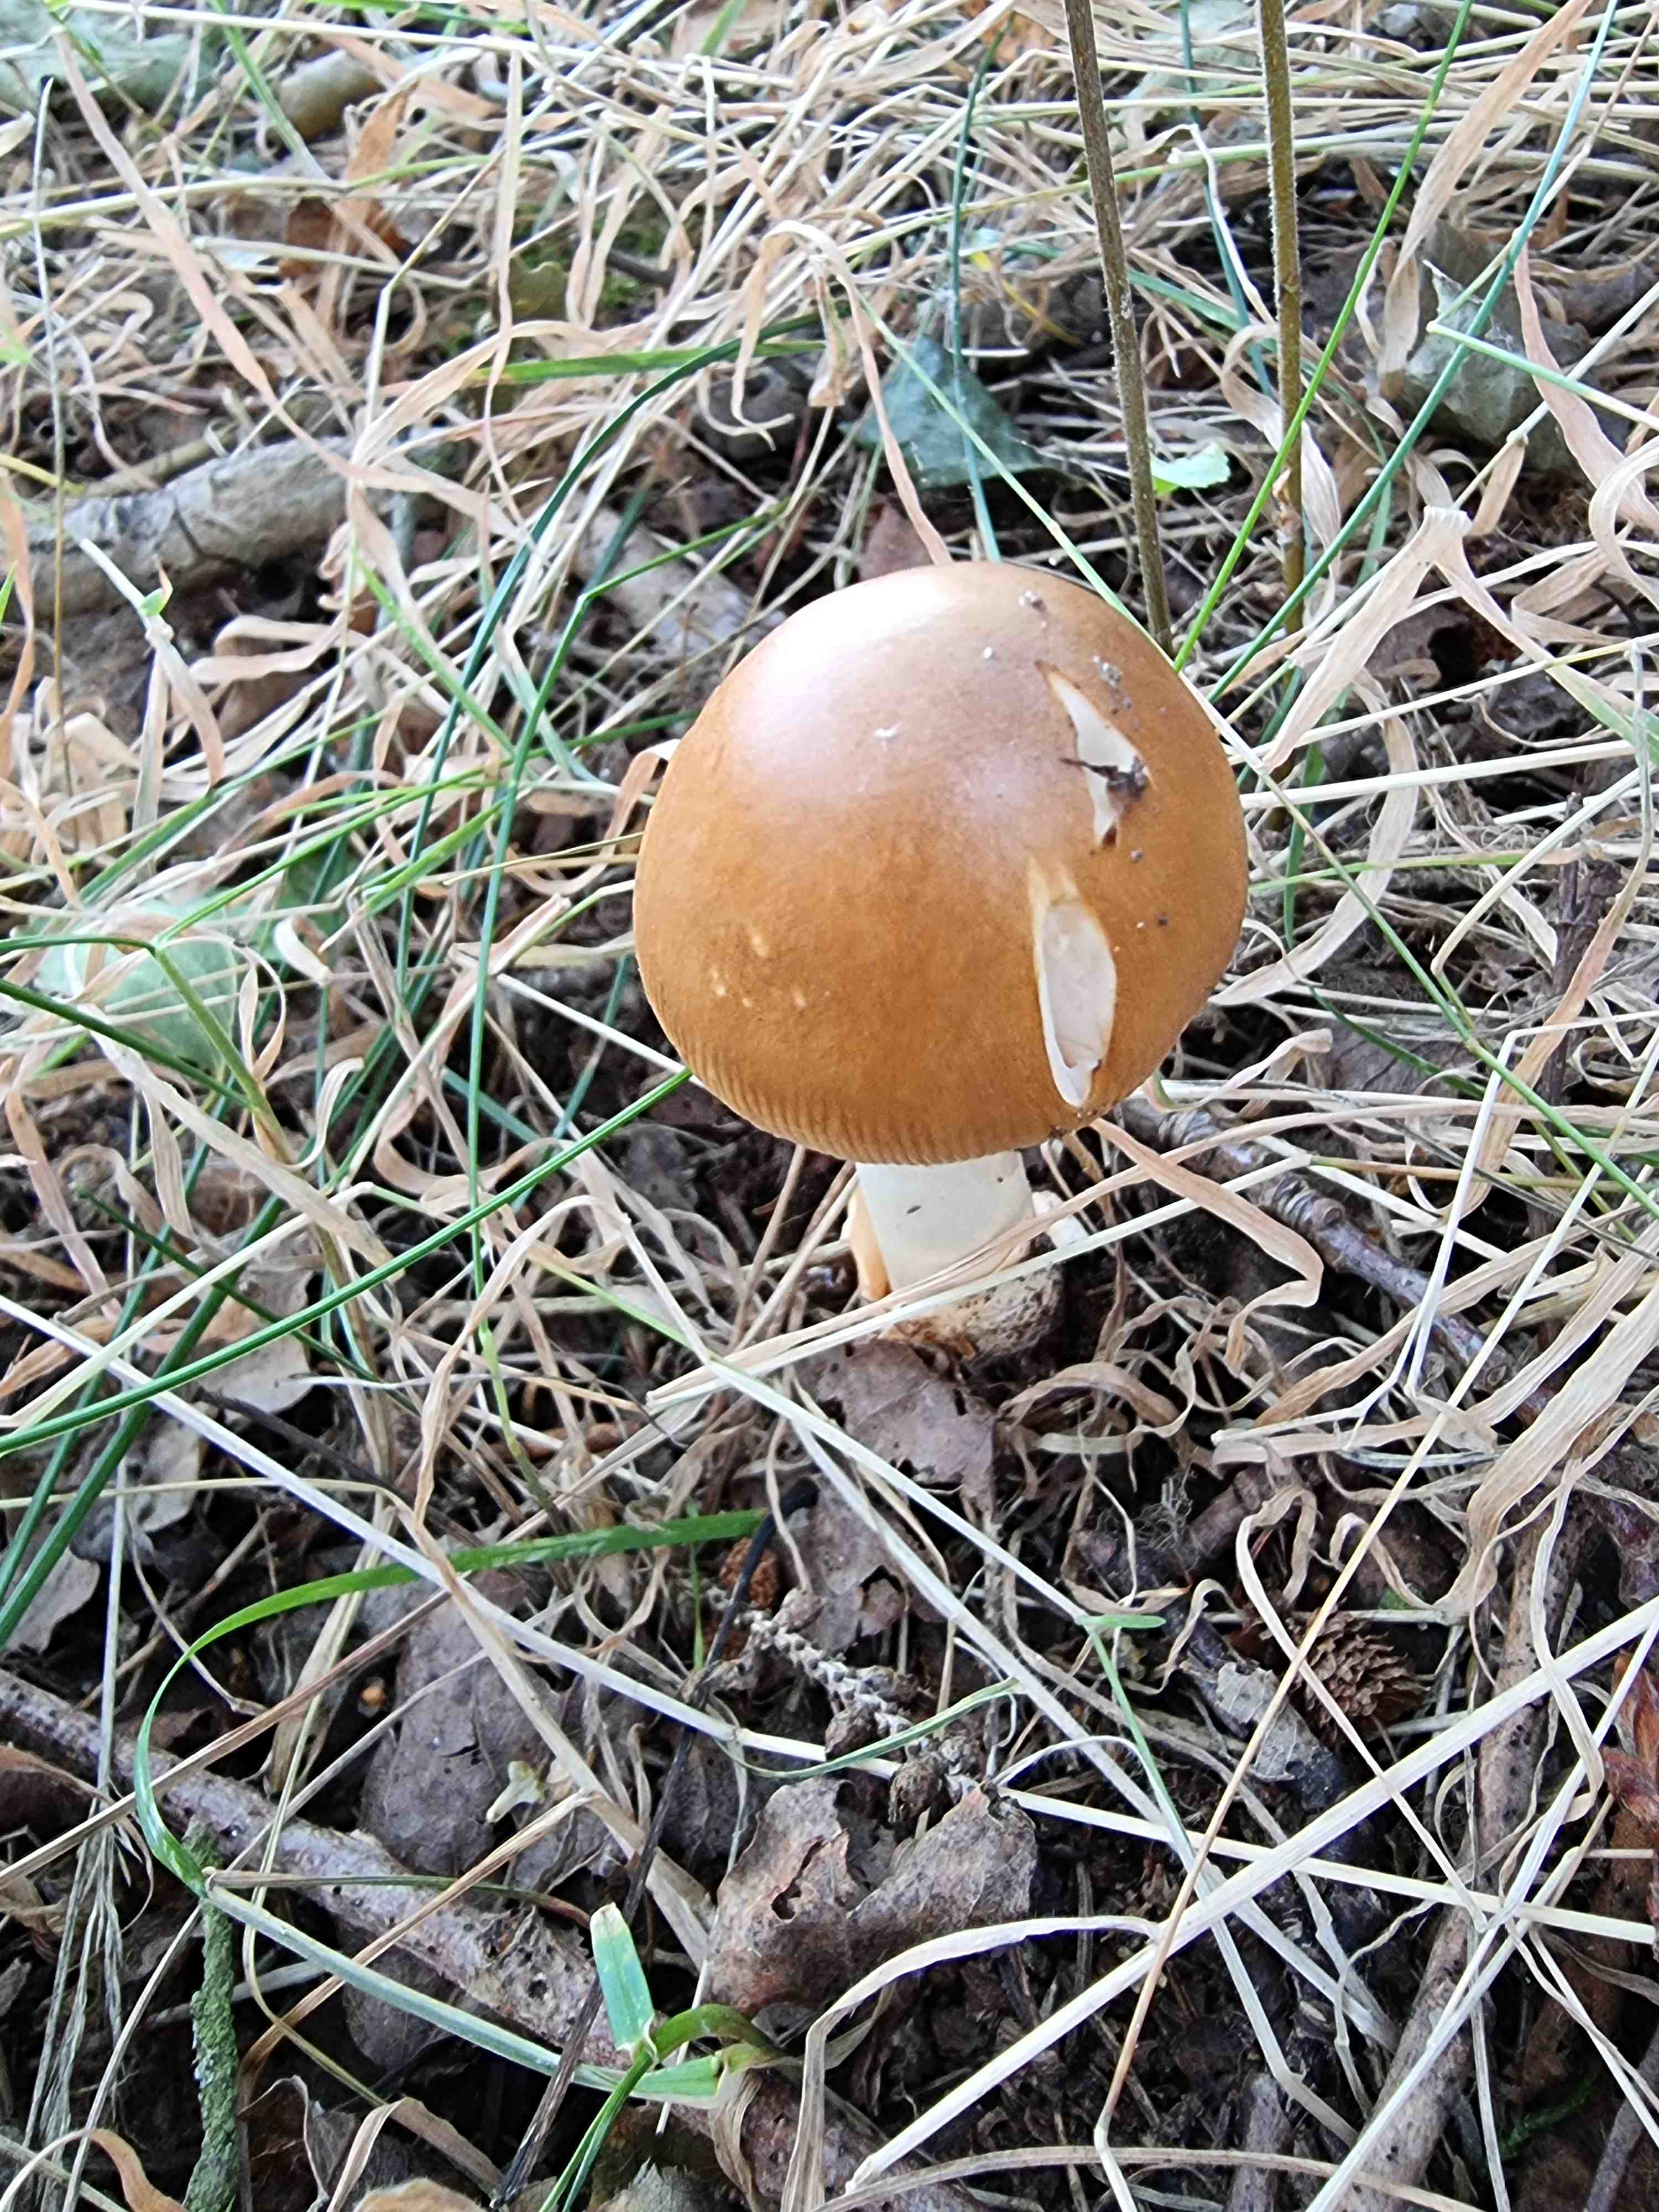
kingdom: Fungi
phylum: Basidiomycota
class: Agaricomycetes
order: Agaricales
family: Amanitaceae
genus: Amanita
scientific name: Amanita fulva
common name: brun kam-fluesvamp
